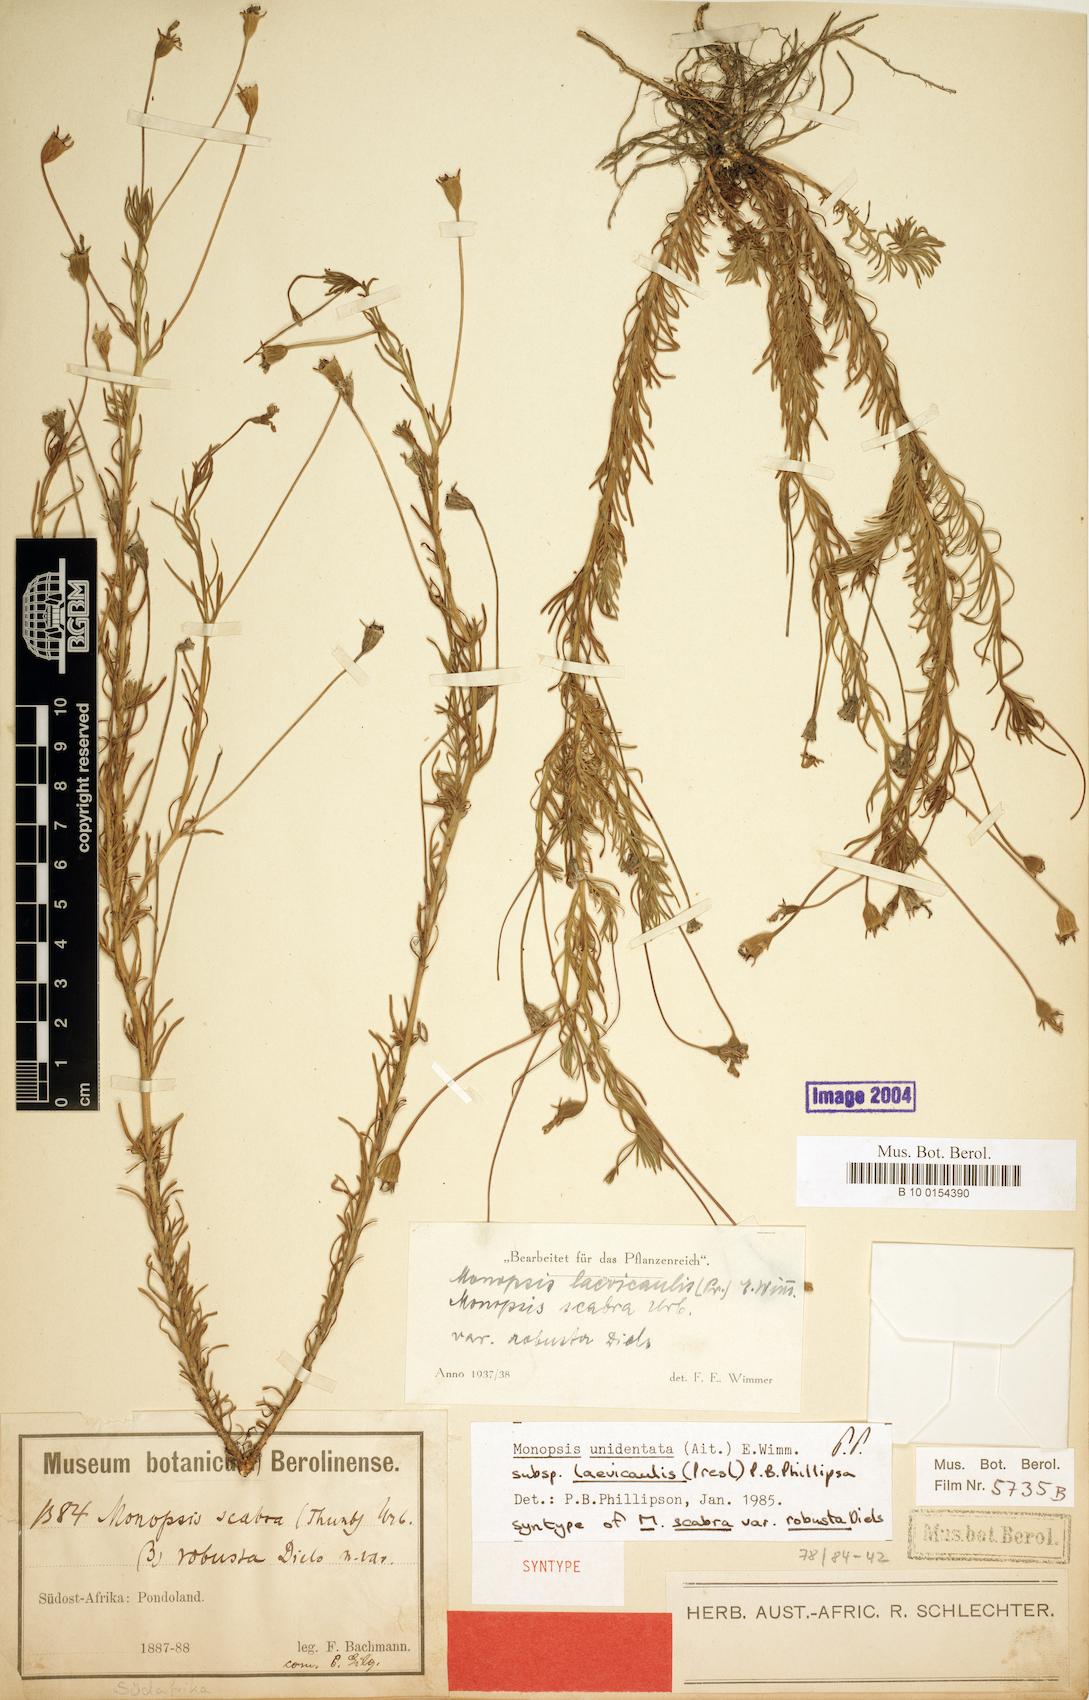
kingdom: Plantae
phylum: Tracheophyta
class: Magnoliopsida
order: Asterales
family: Campanulaceae
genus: Monopsis
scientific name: Monopsis unidentata
